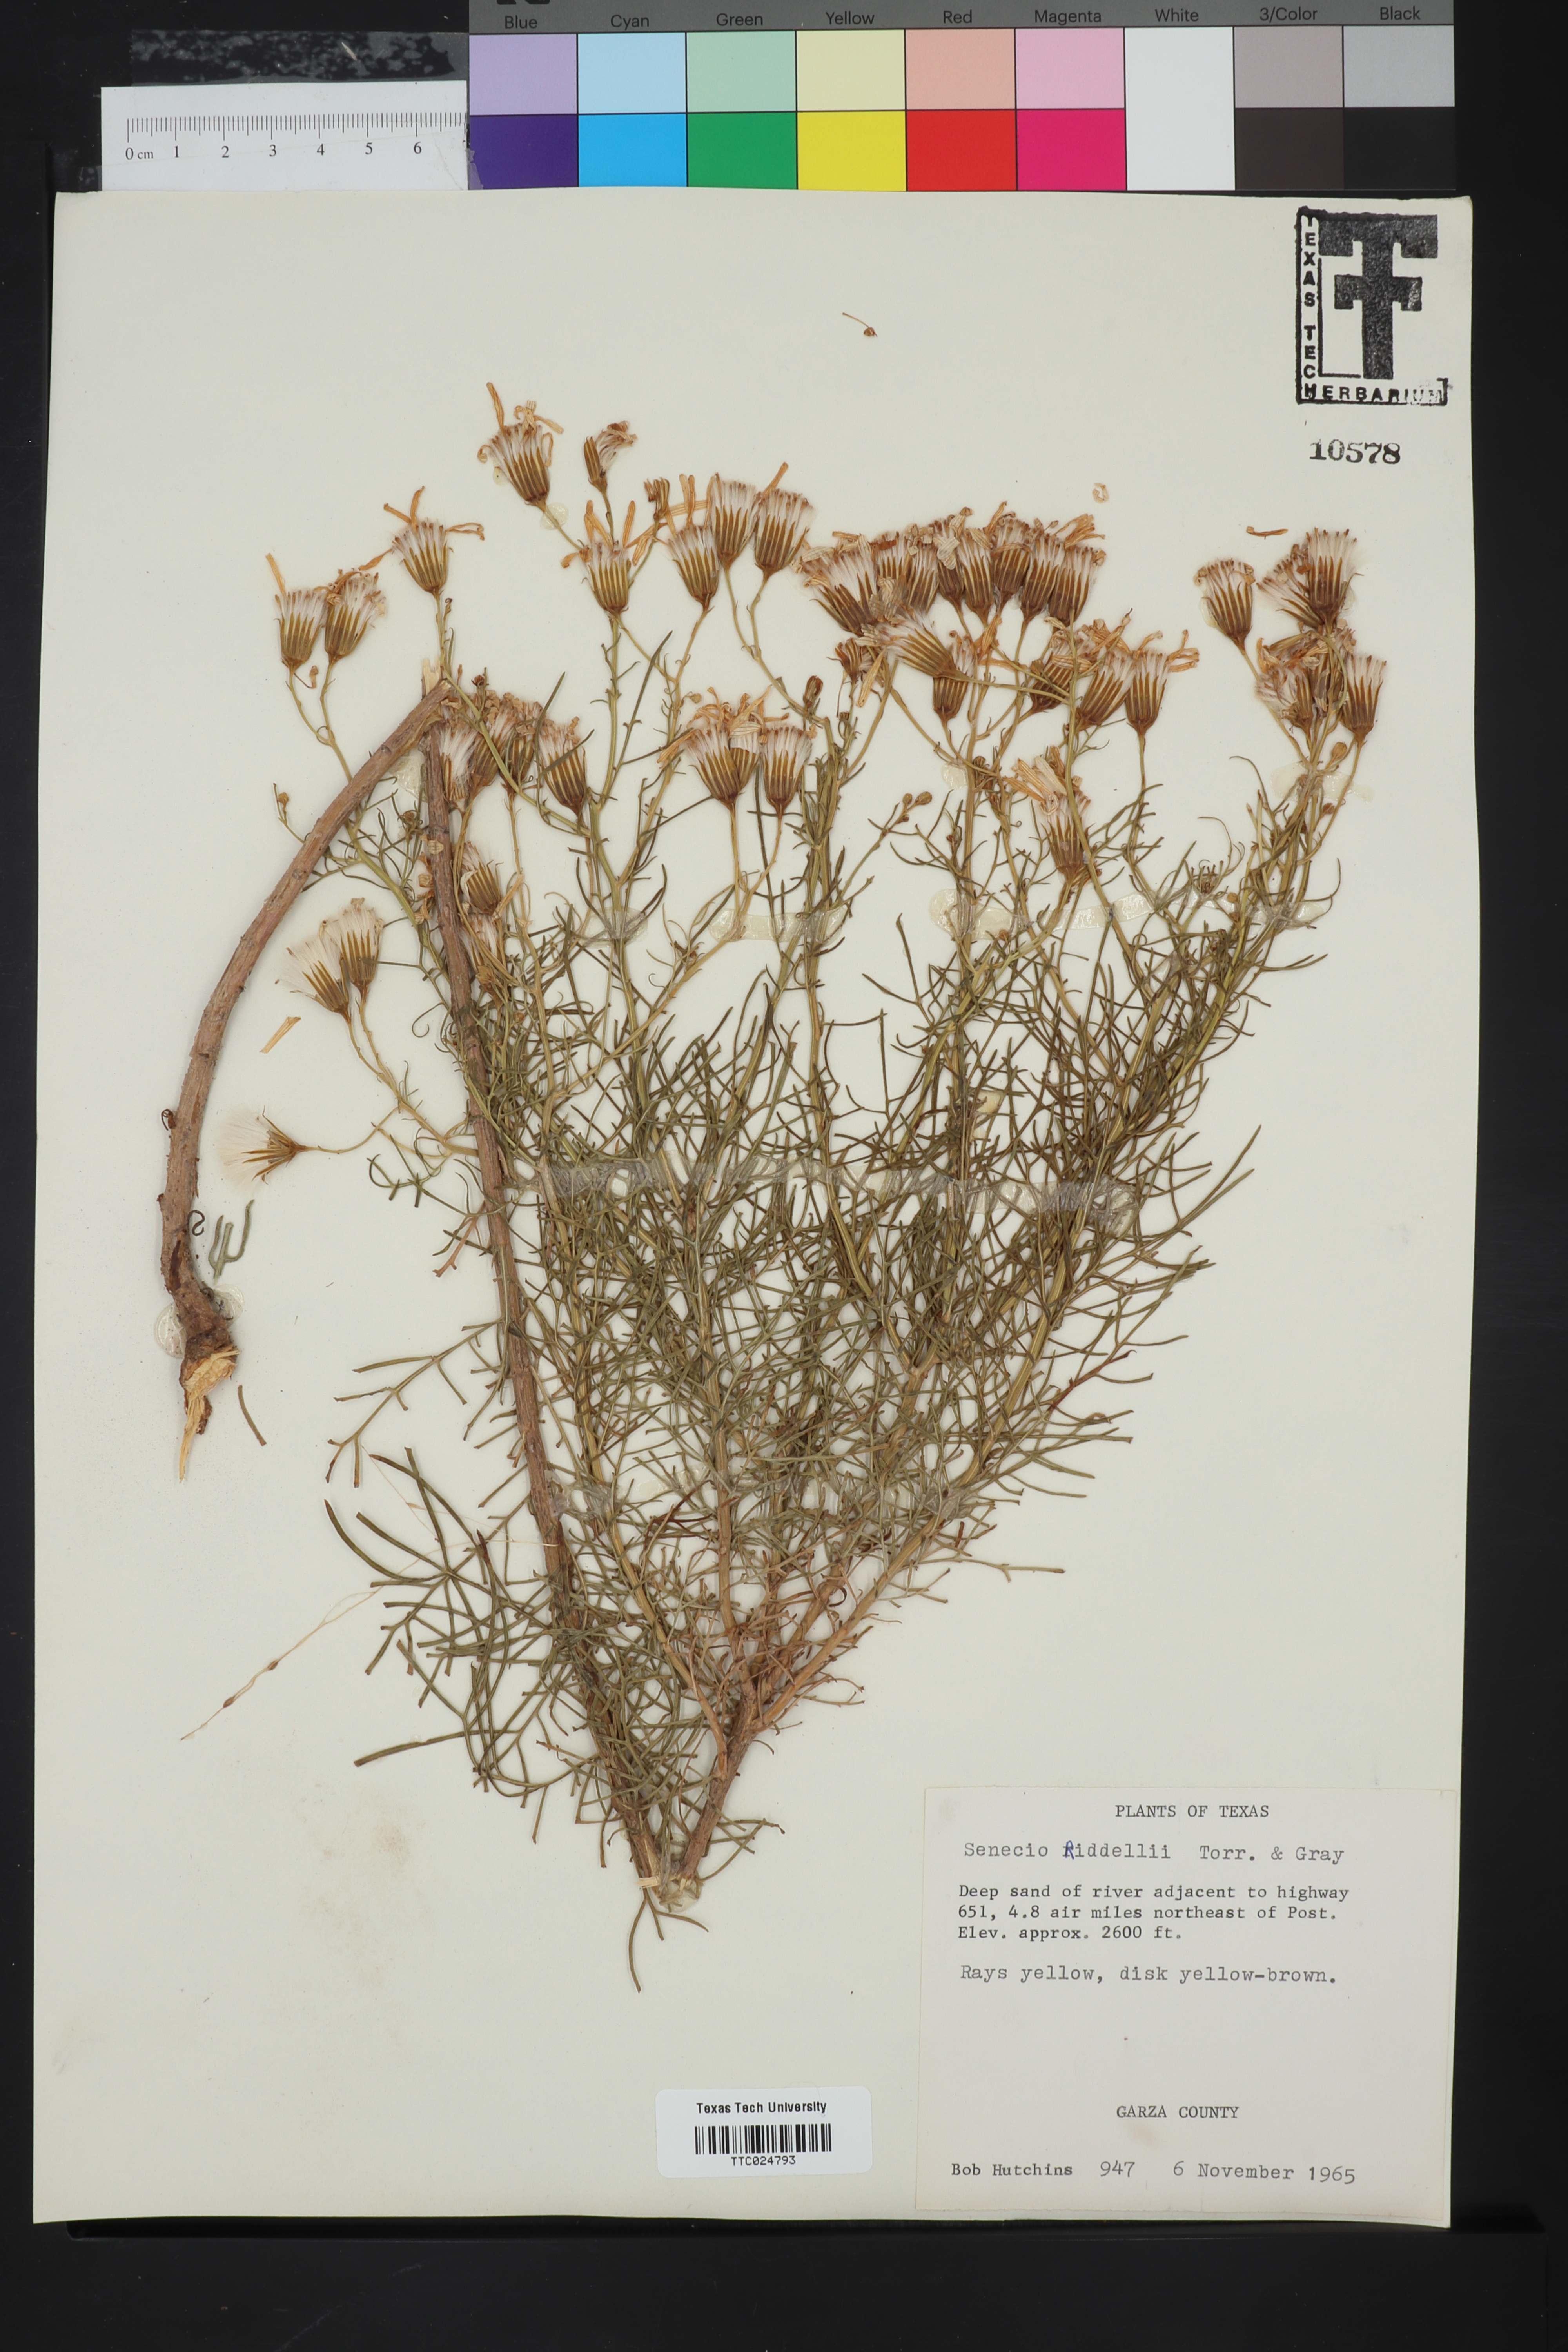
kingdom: Plantae
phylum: Tracheophyta
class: Magnoliopsida
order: Asterales
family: Asteraceae
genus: Senecio
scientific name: Senecio riddellii
